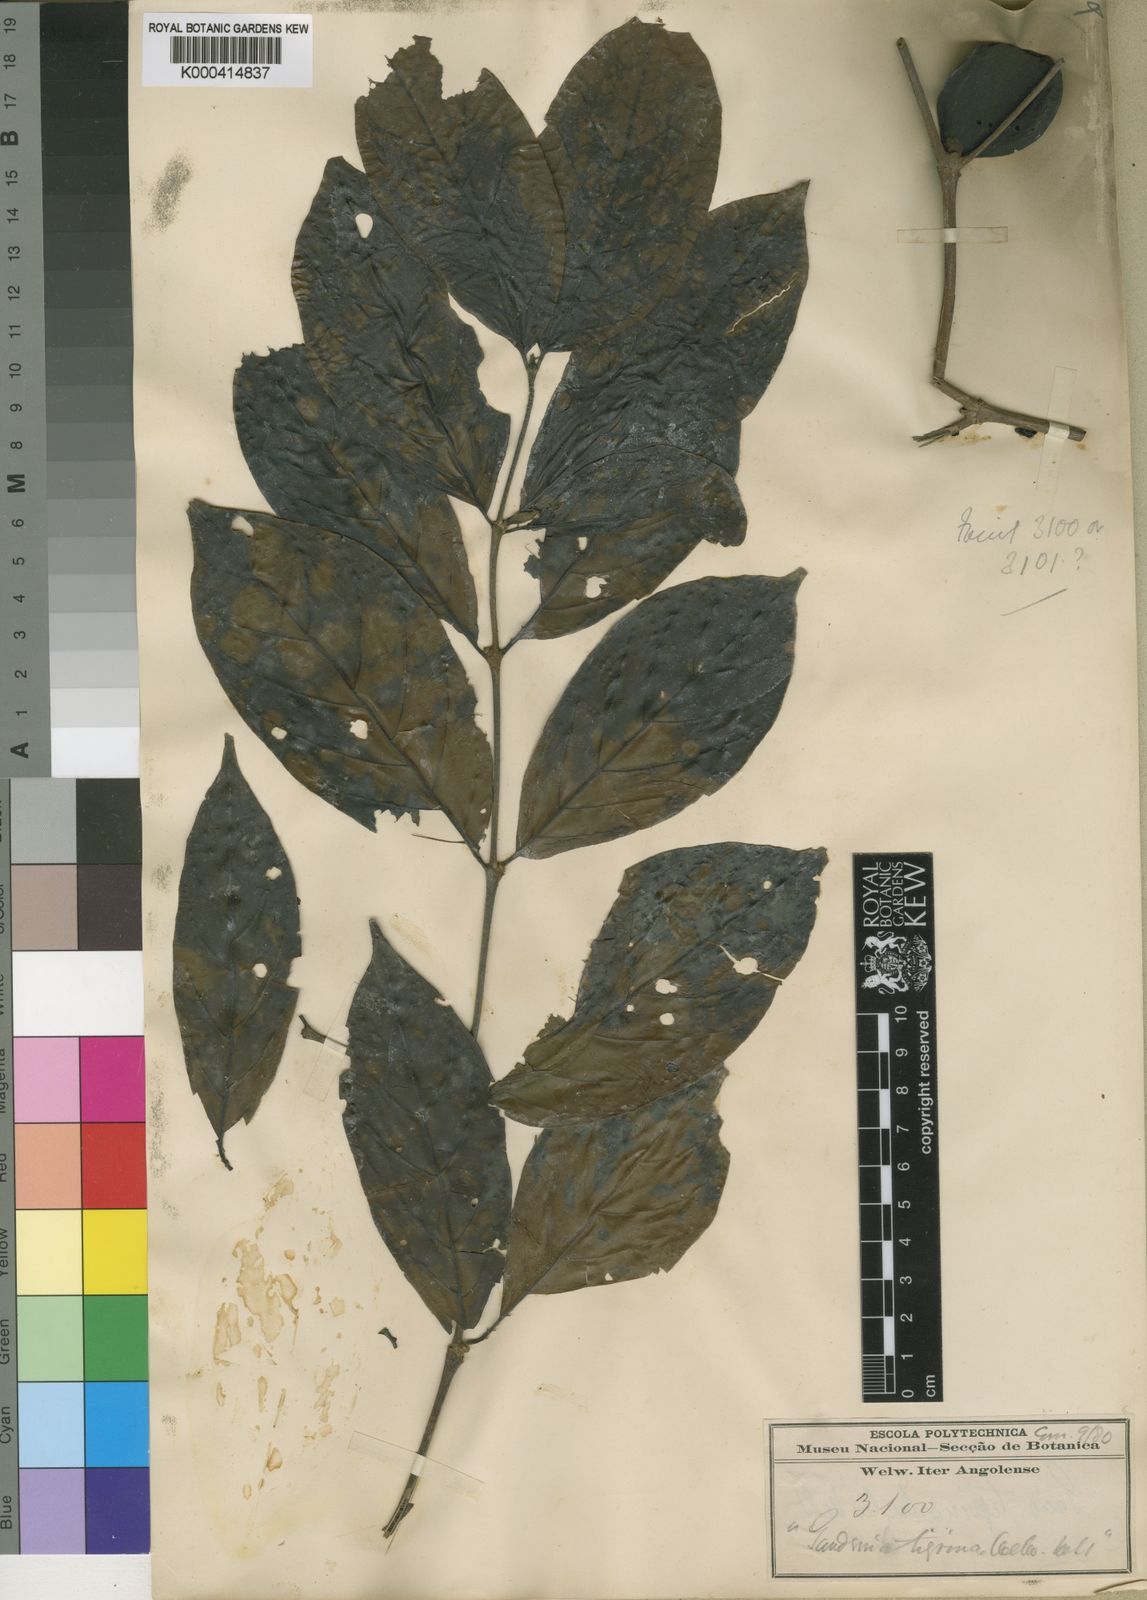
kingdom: Plantae
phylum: Tracheophyta
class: Magnoliopsida
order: Gentianales
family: Rubiaceae
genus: Rothmannia
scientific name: Rothmannia urcelliformis
